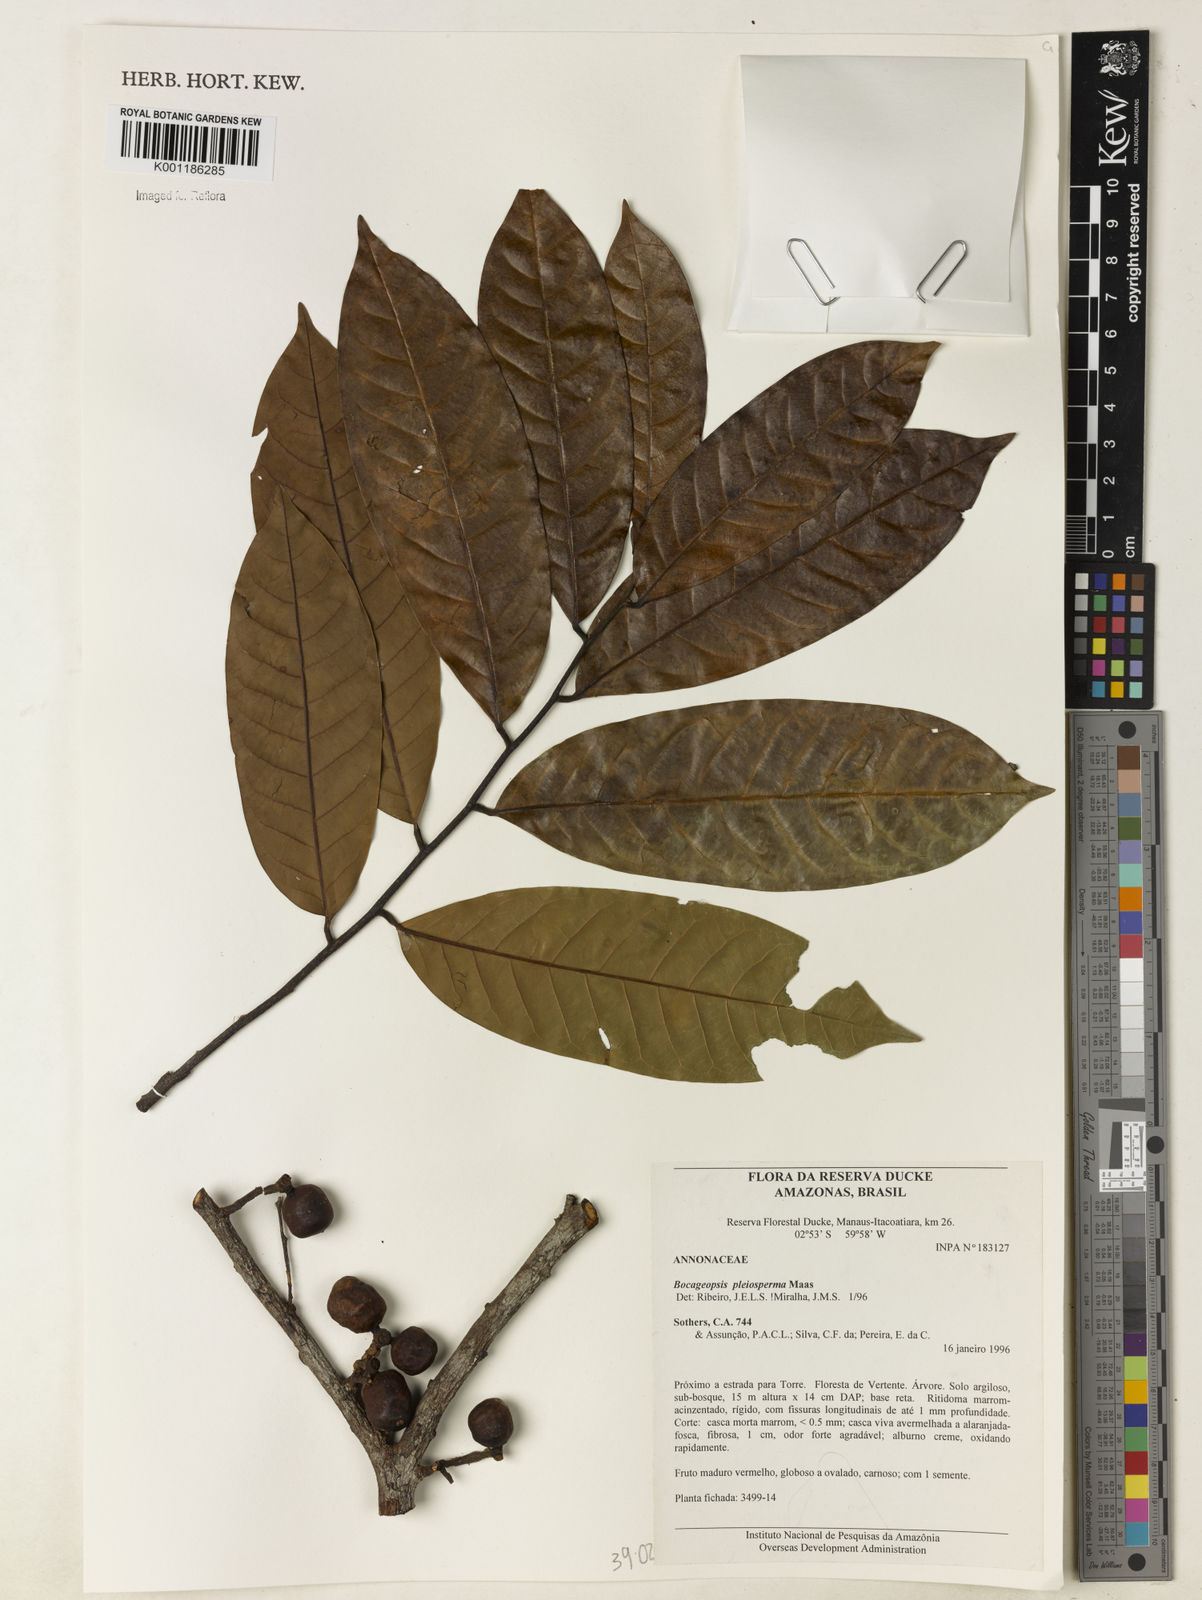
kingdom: Plantae
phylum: Tracheophyta
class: Magnoliopsida
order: Magnoliales
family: Annonaceae
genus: Bocageopsis
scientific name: Bocageopsis pleiosperma
